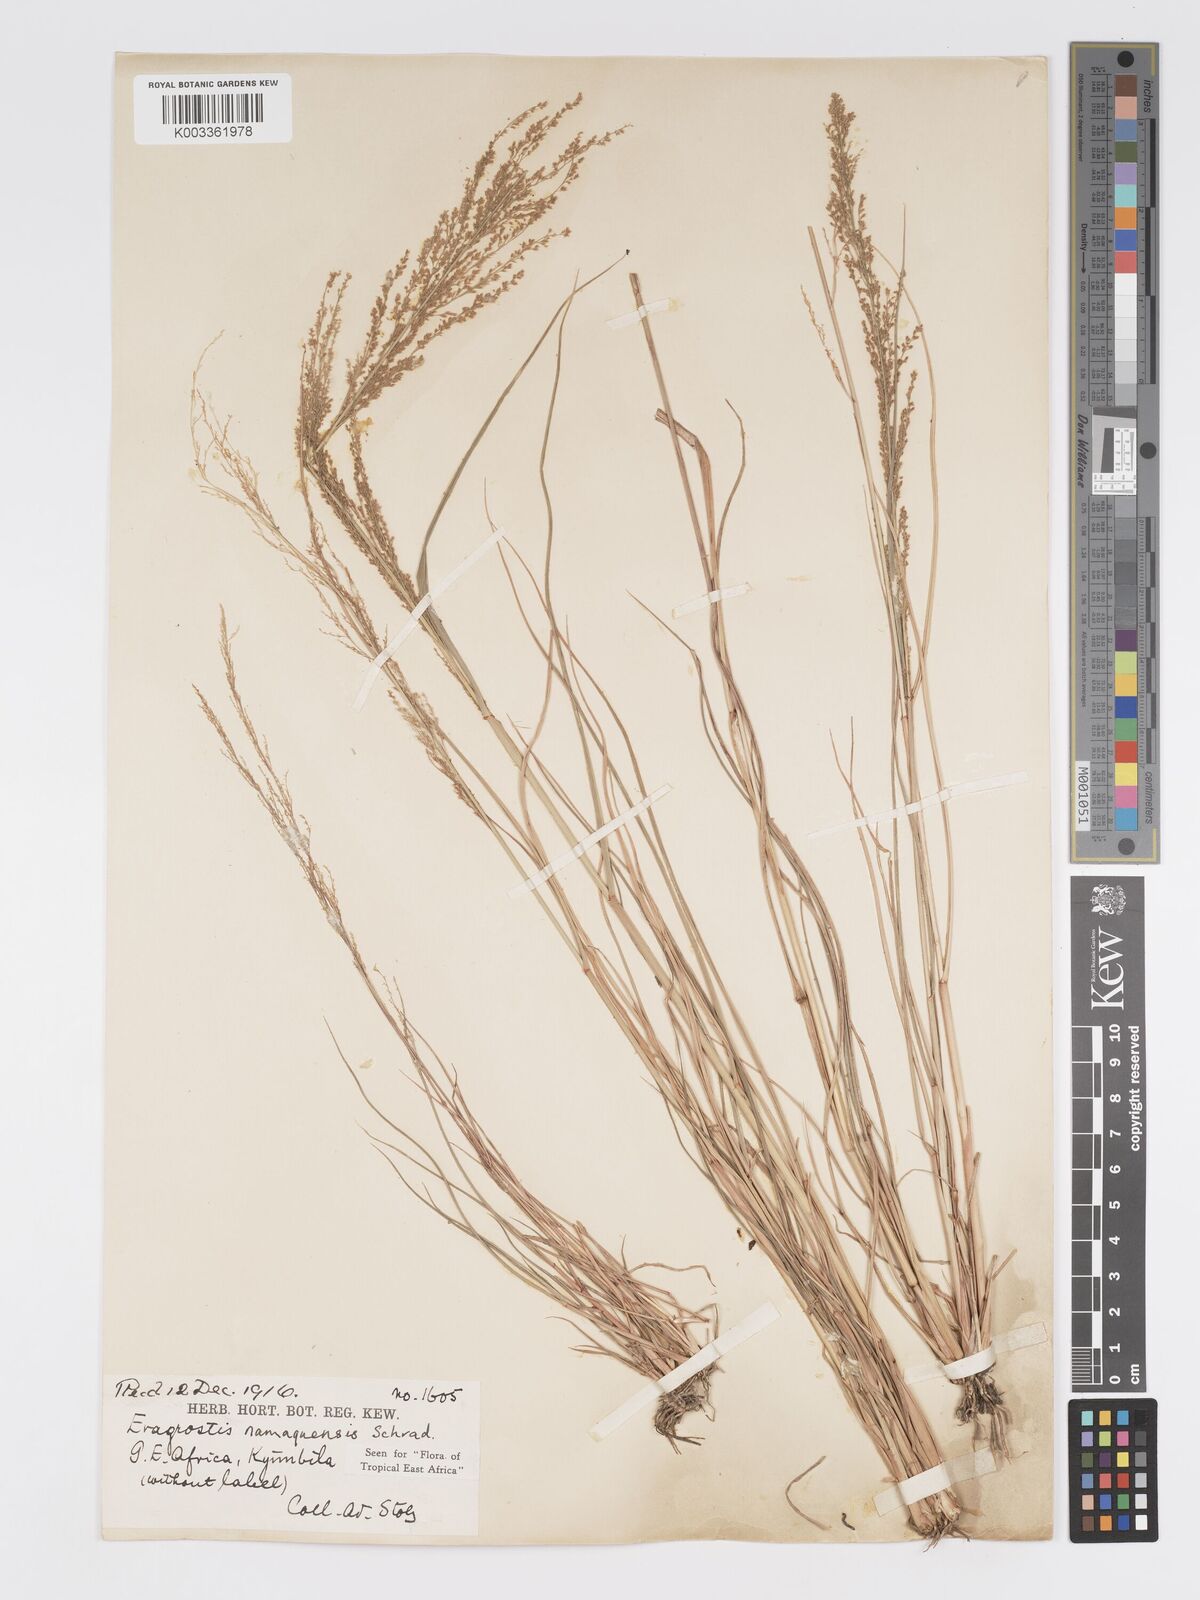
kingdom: Plantae
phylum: Tracheophyta
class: Liliopsida
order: Poales
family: Poaceae
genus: Eragrostis
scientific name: Eragrostis japonica
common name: Pond lovegrass
